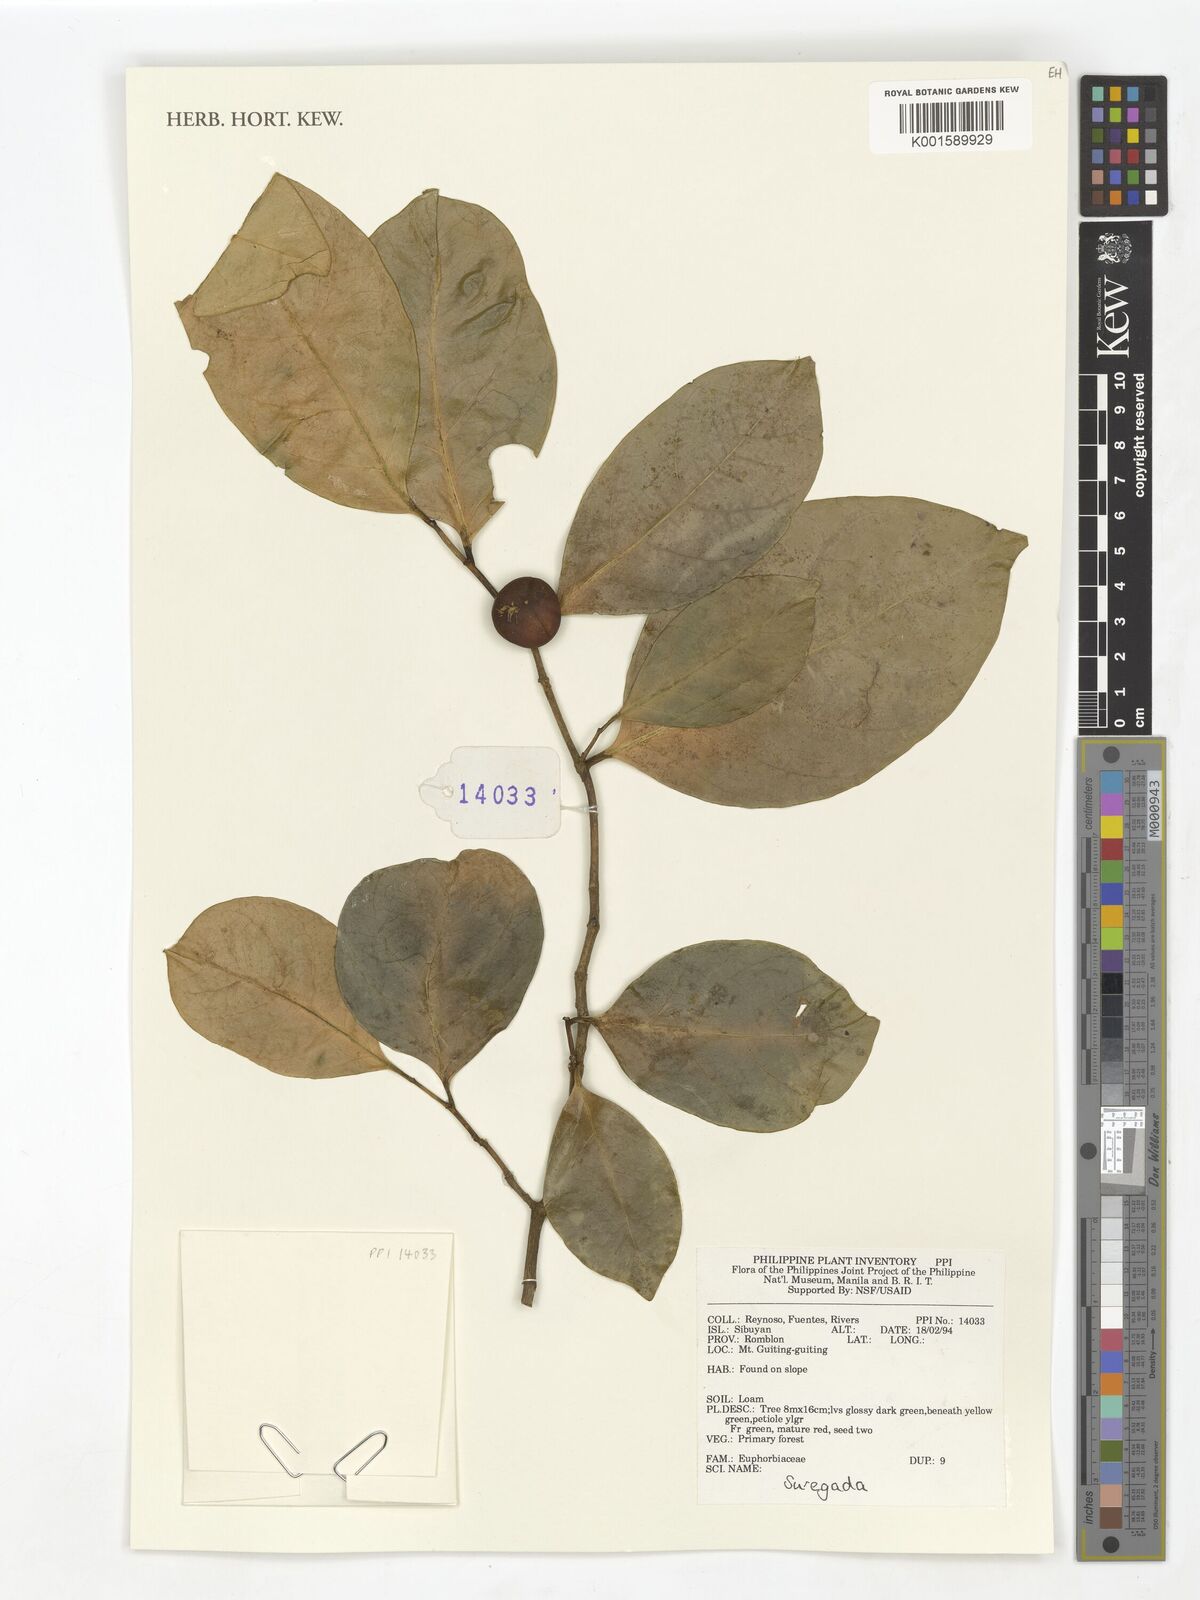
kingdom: Plantae
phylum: Tracheophyta
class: Magnoliopsida
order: Malpighiales
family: Euphorbiaceae
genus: Suregada
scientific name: Suregada
